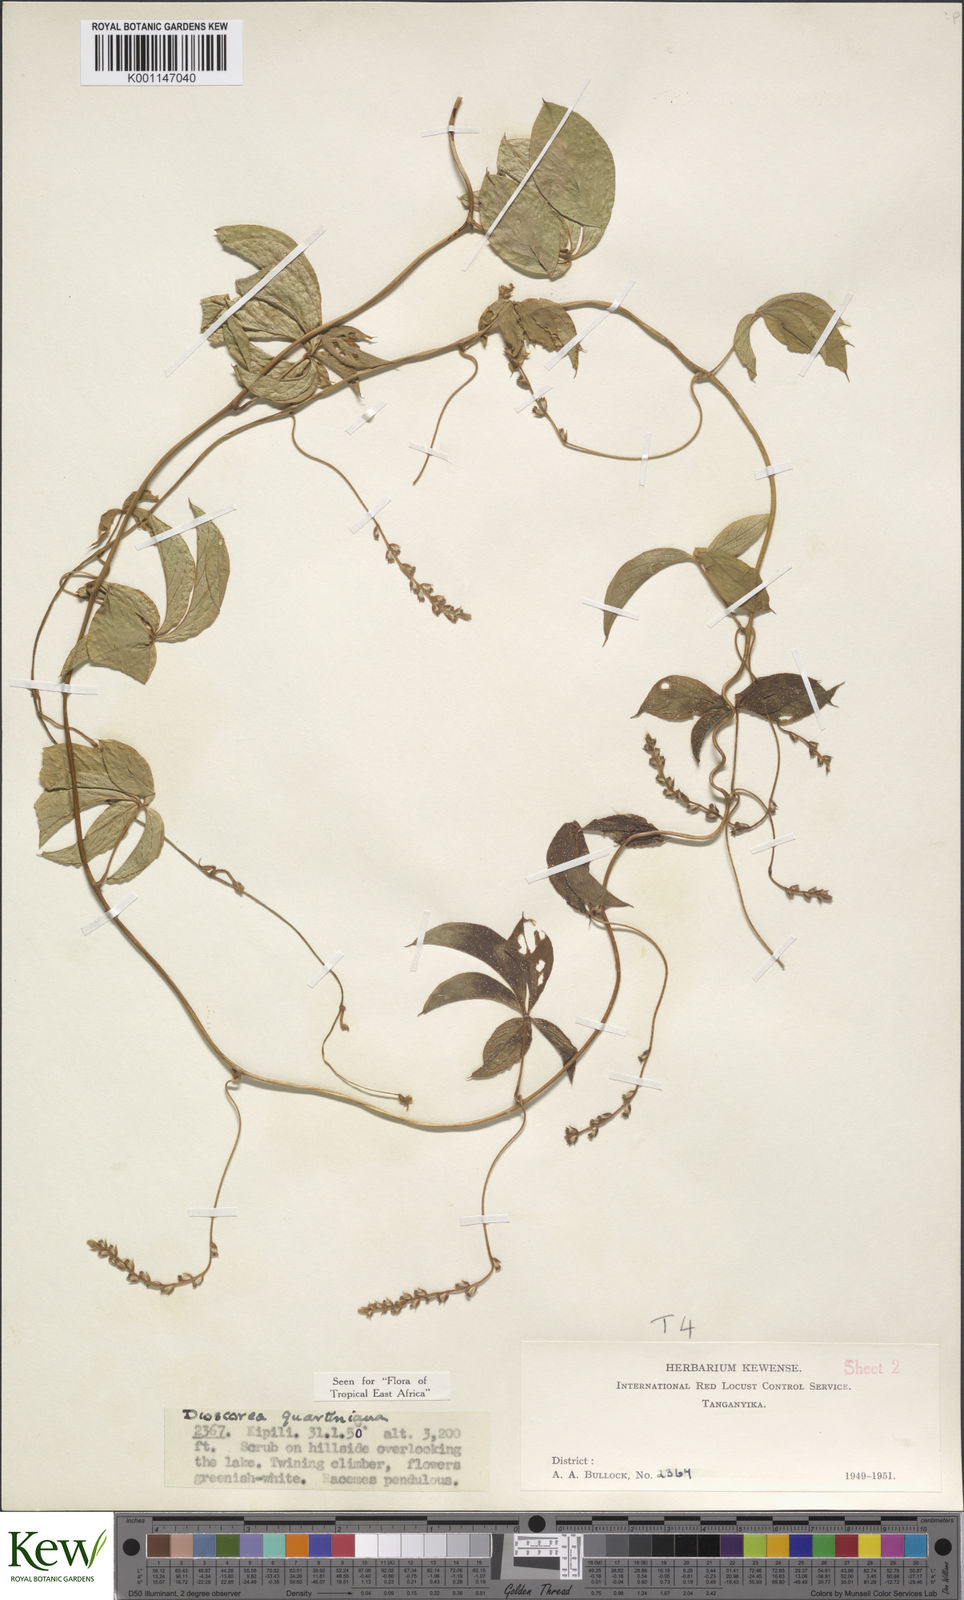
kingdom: Plantae
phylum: Tracheophyta
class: Liliopsida
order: Dioscoreales
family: Dioscoreaceae
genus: Dioscorea
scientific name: Dioscorea quartiniana
